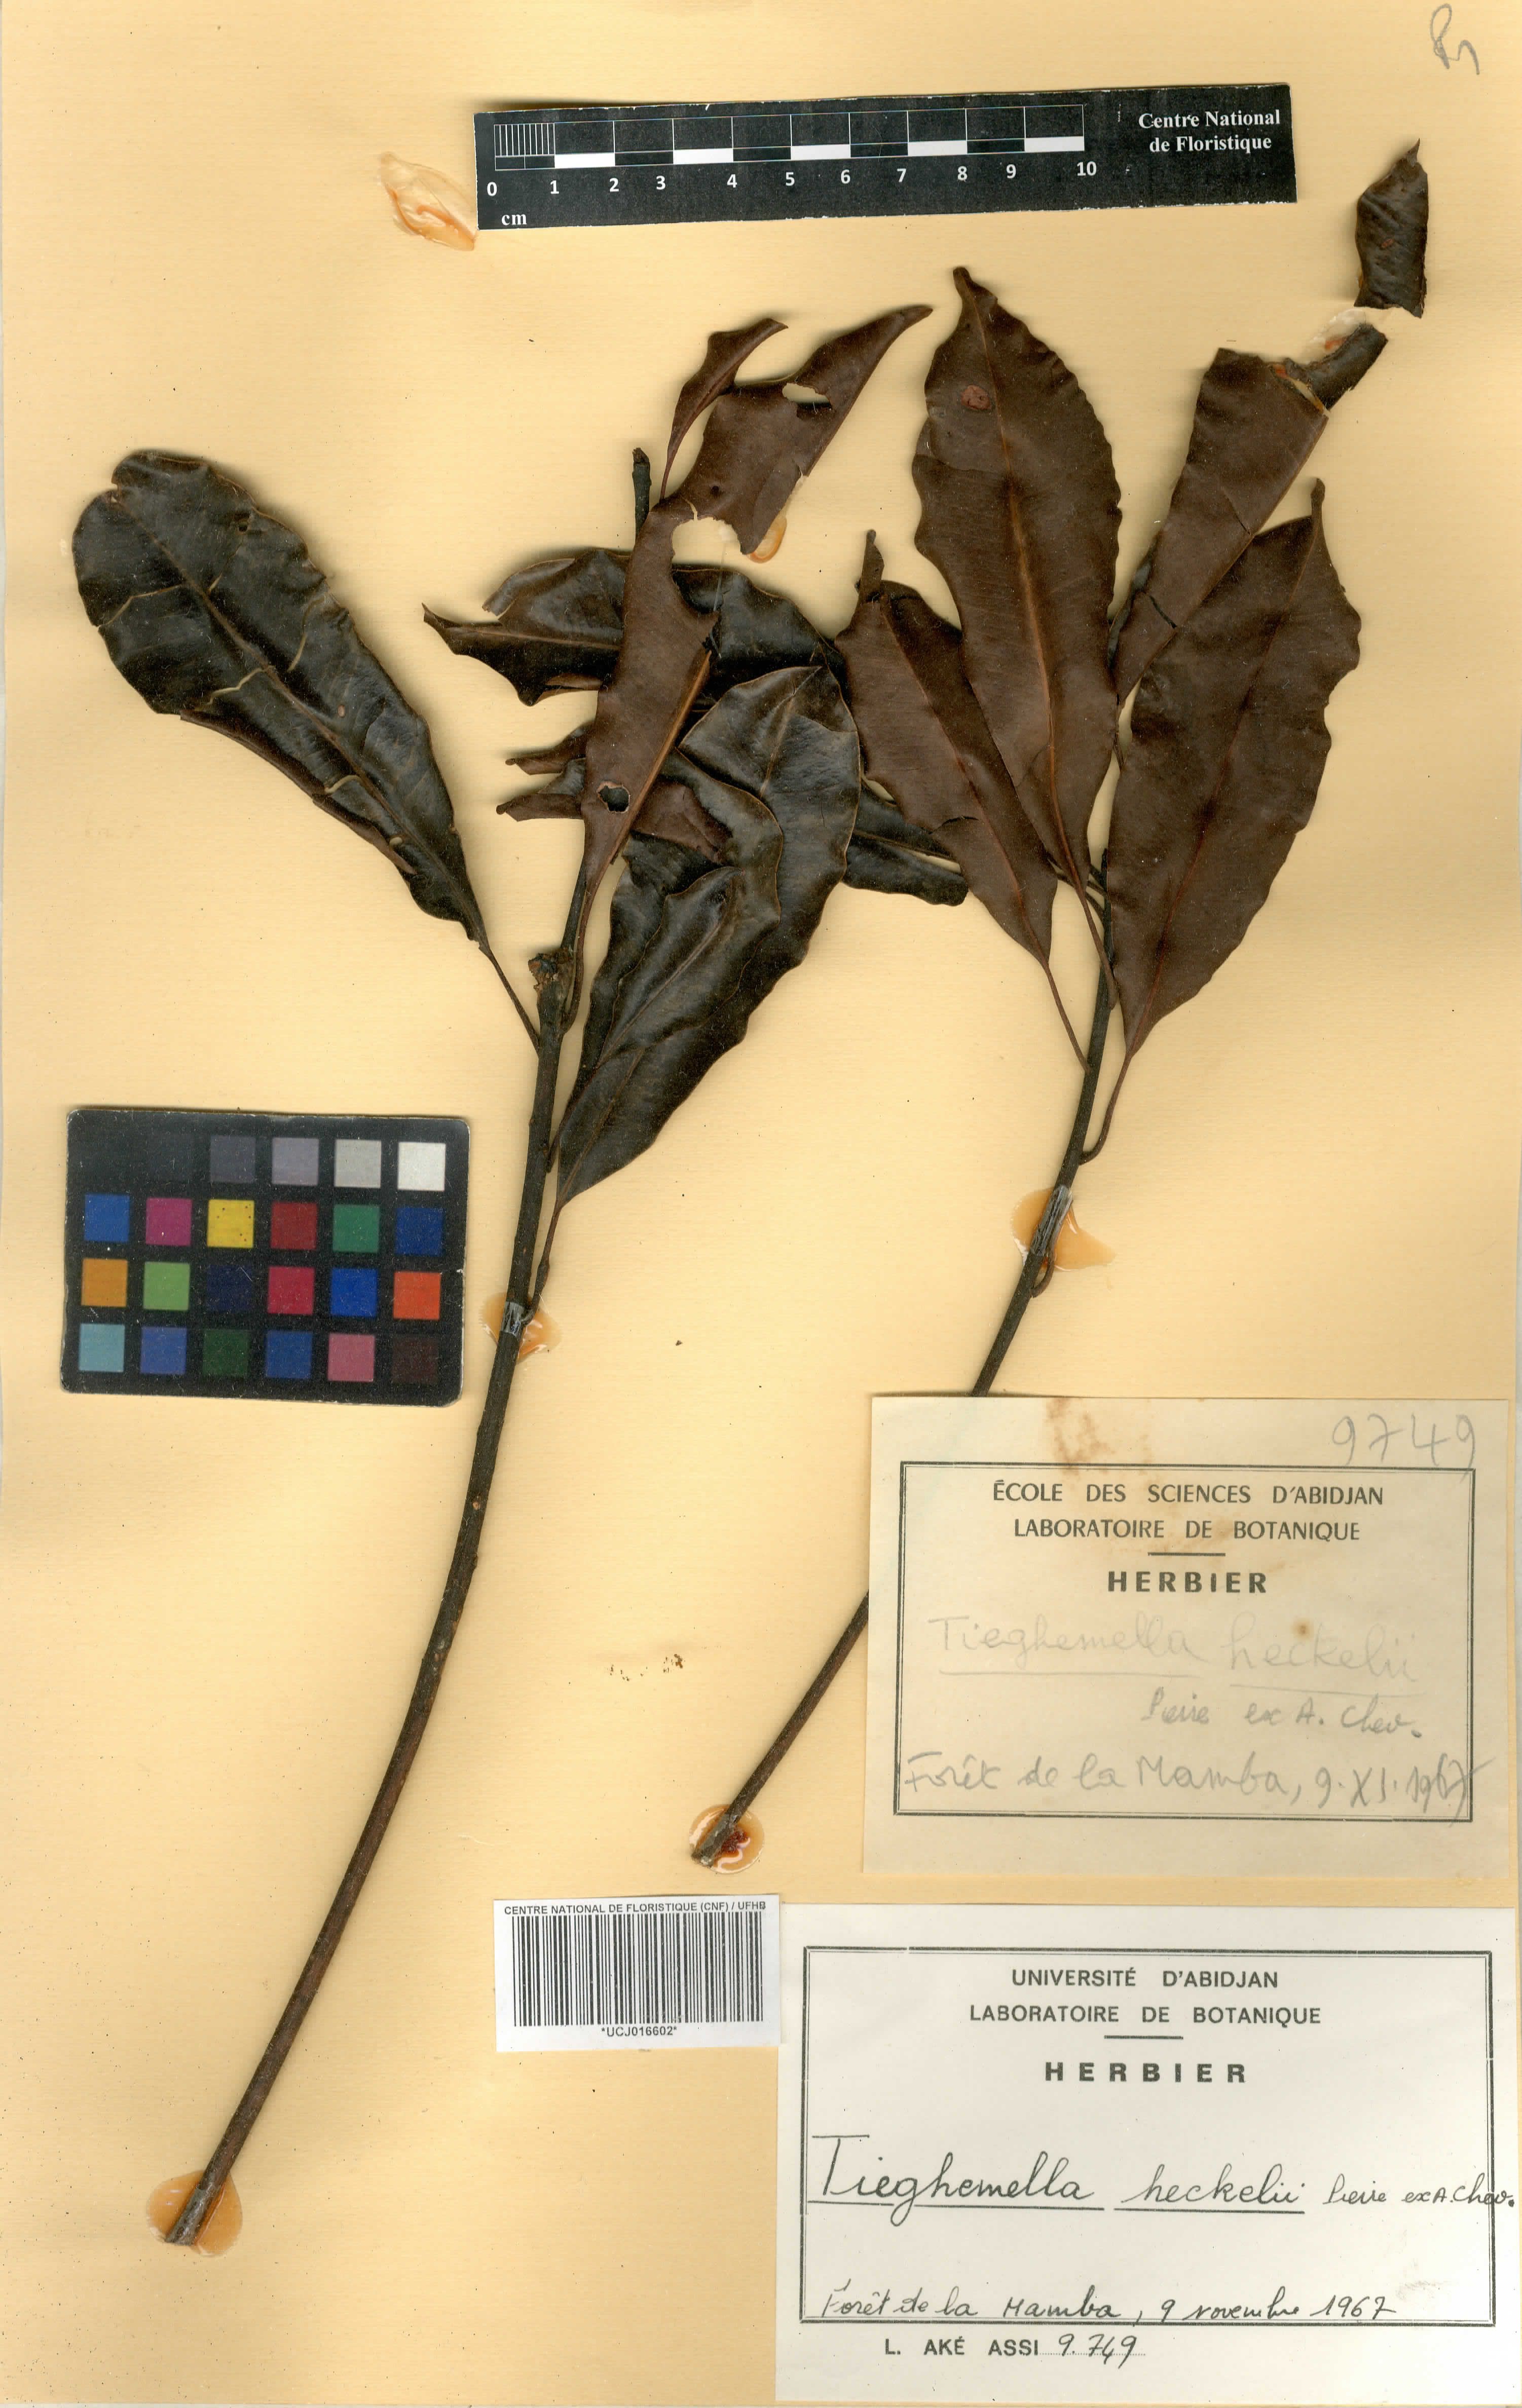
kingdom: Plantae
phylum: Tracheophyta
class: Magnoliopsida
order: Ericales
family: Sapotaceae
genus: Tieghemella
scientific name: Tieghemella heckelii
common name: Cherry mahogany
